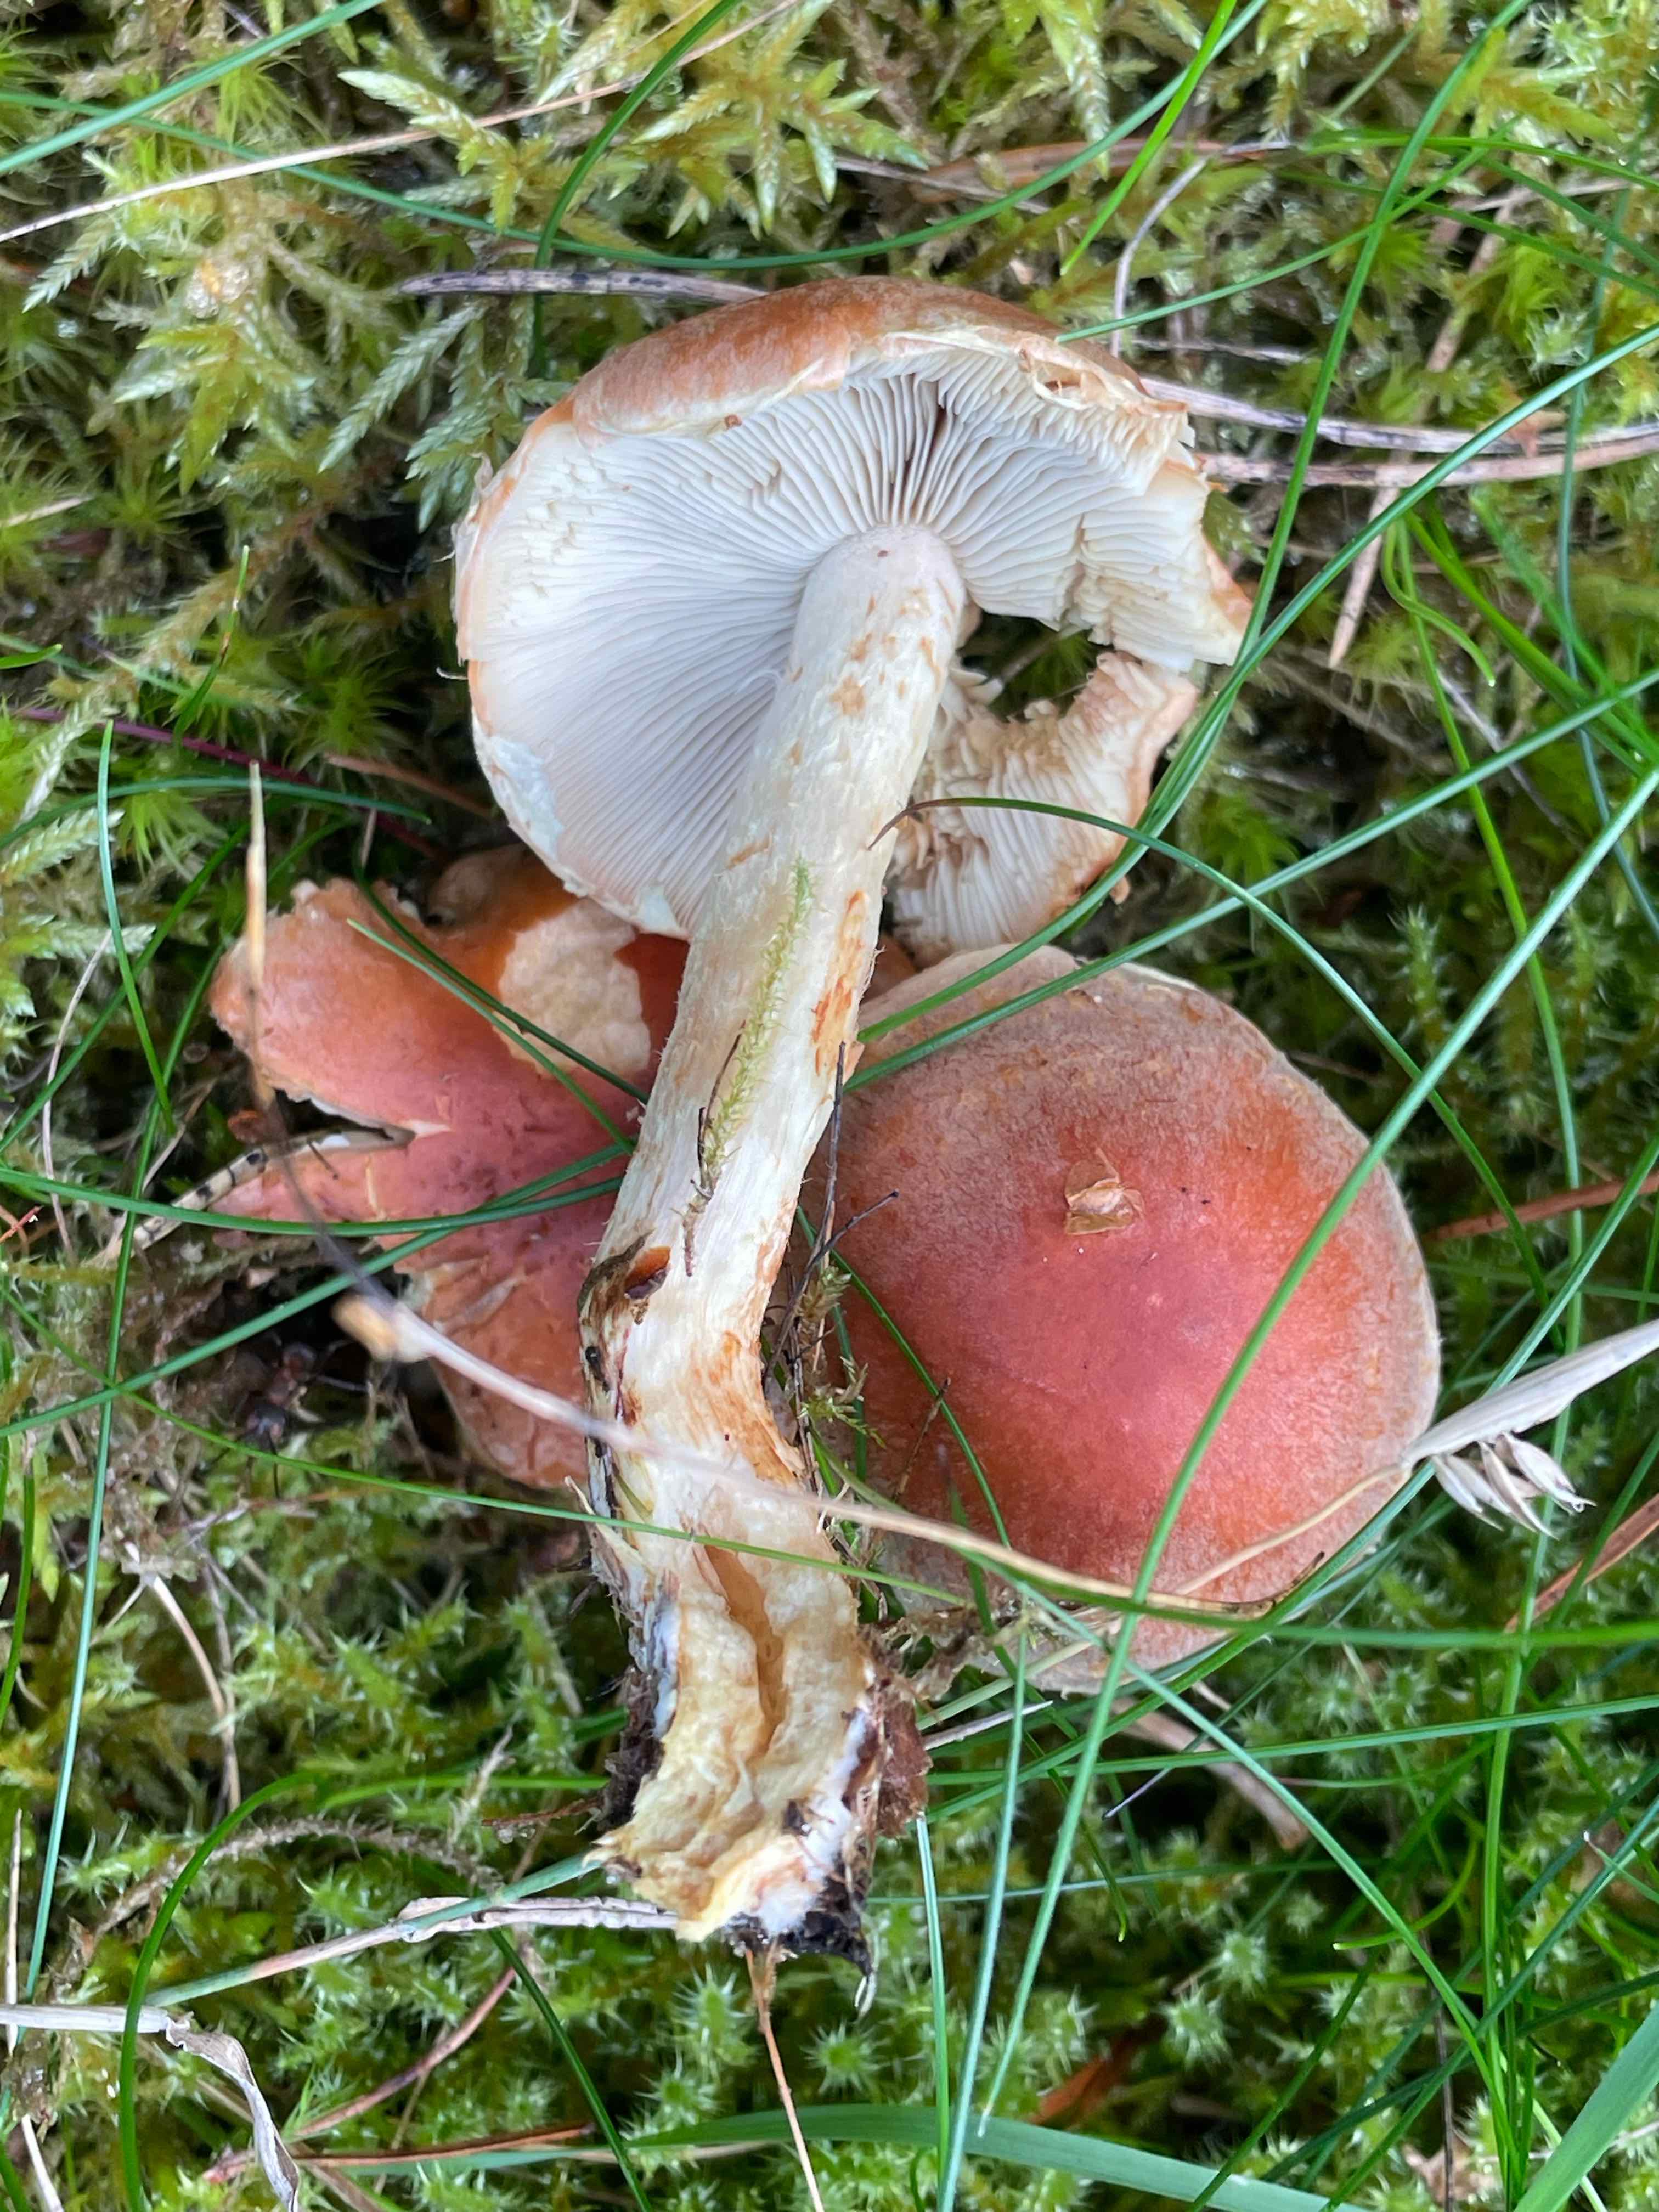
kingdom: Fungi
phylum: Basidiomycota
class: Agaricomycetes
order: Agaricales
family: Strophariaceae
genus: Hypholoma
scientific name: Hypholoma lateritium
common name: teglrød svovlhat
